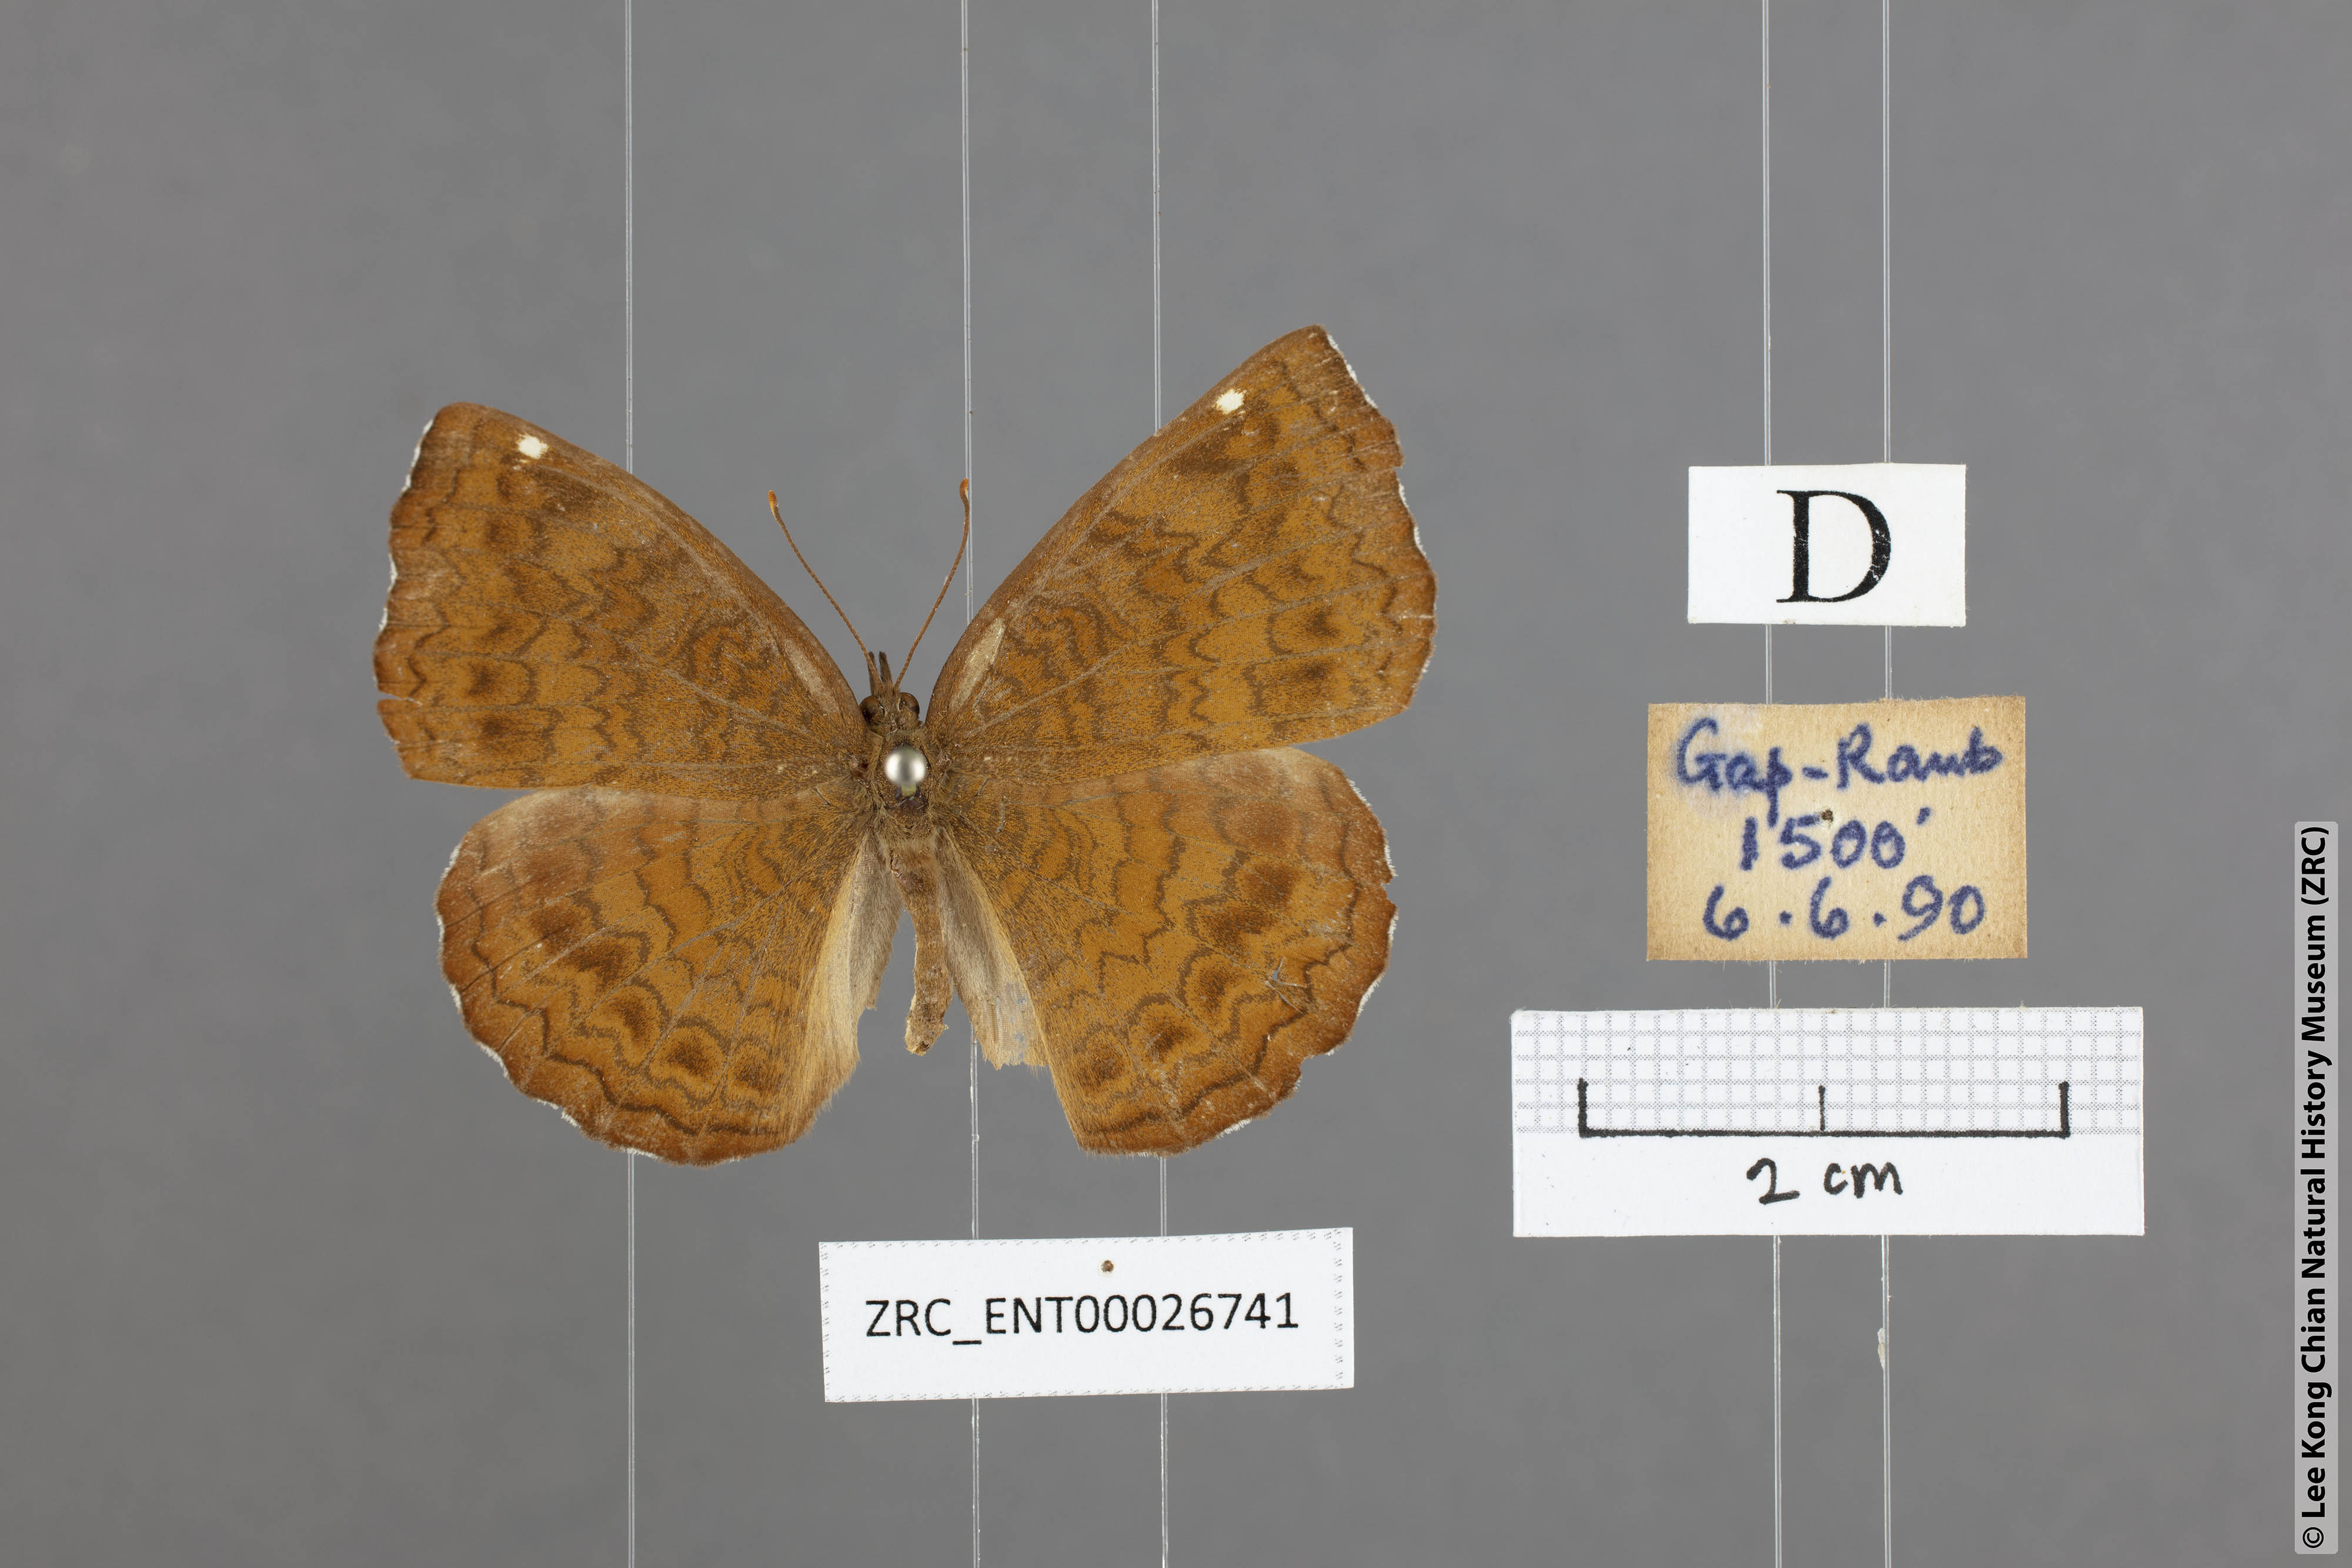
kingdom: Animalia
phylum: Arthropoda
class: Insecta
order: Lepidoptera
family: Nymphalidae
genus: Ariadne
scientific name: Ariadne merione
